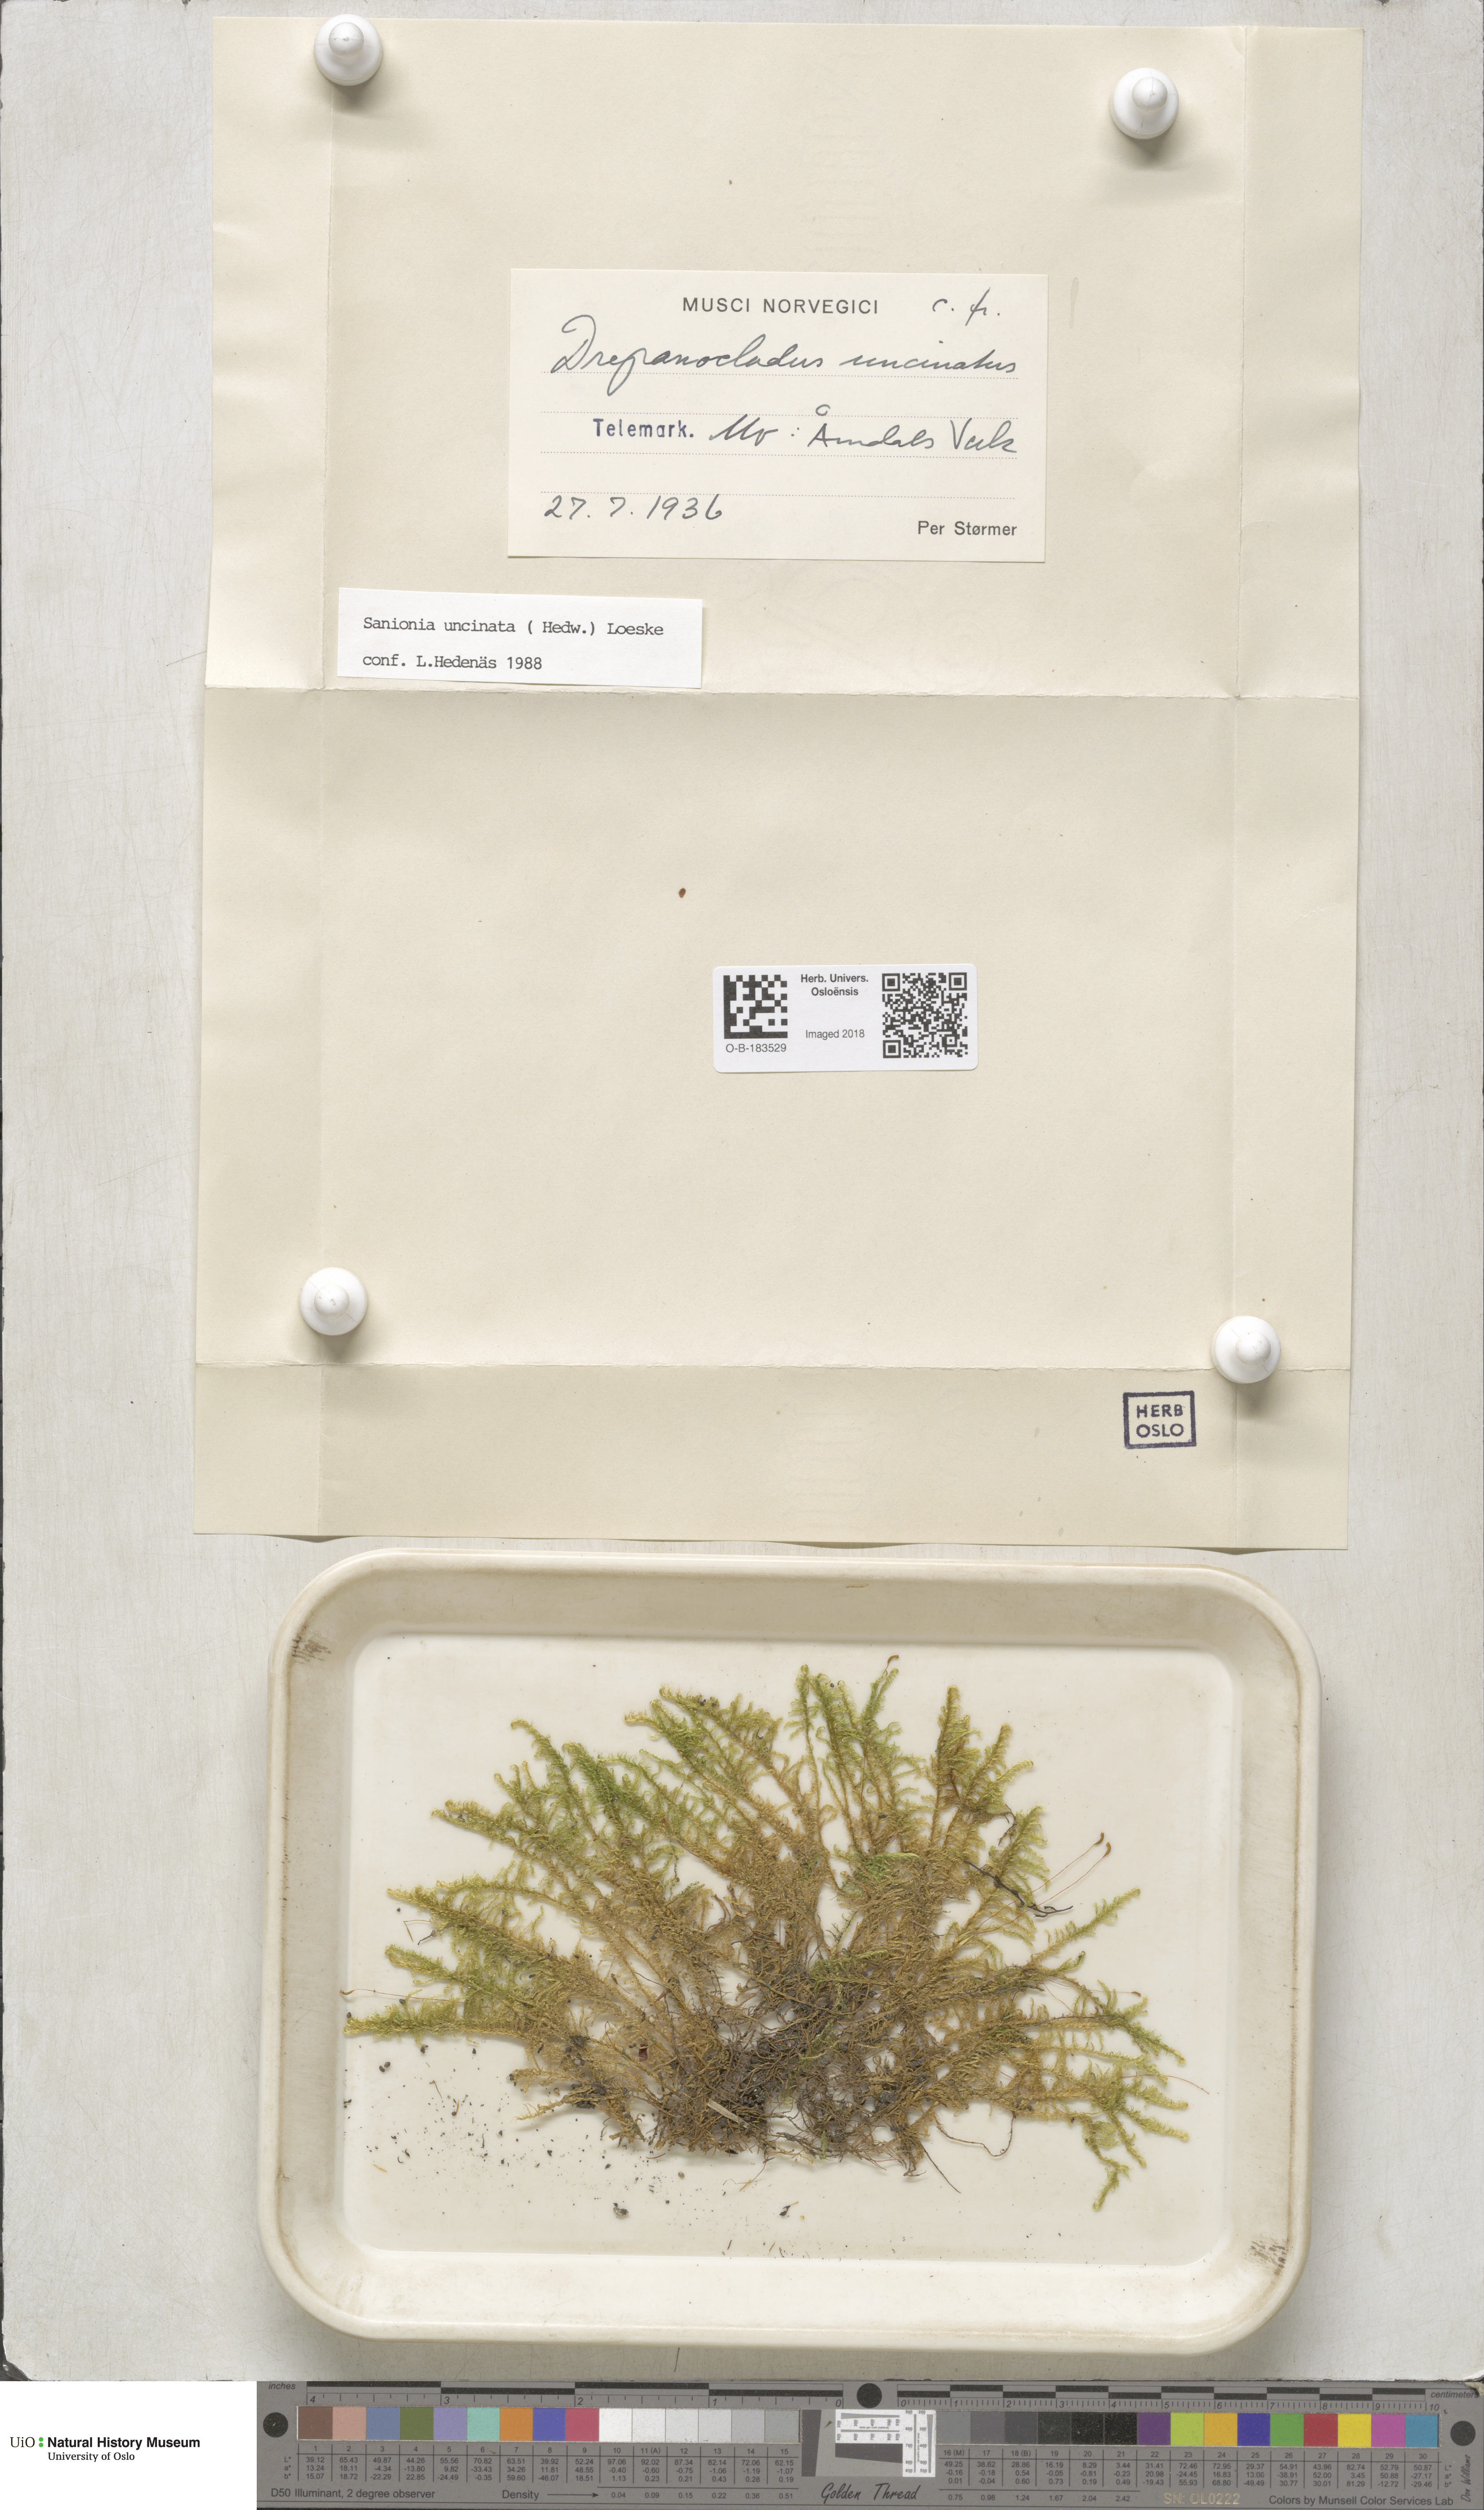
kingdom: Plantae
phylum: Bryophyta
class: Bryopsida
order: Hypnales
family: Scorpidiaceae
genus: Sanionia
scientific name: Sanionia uncinata
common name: Sickle moss
